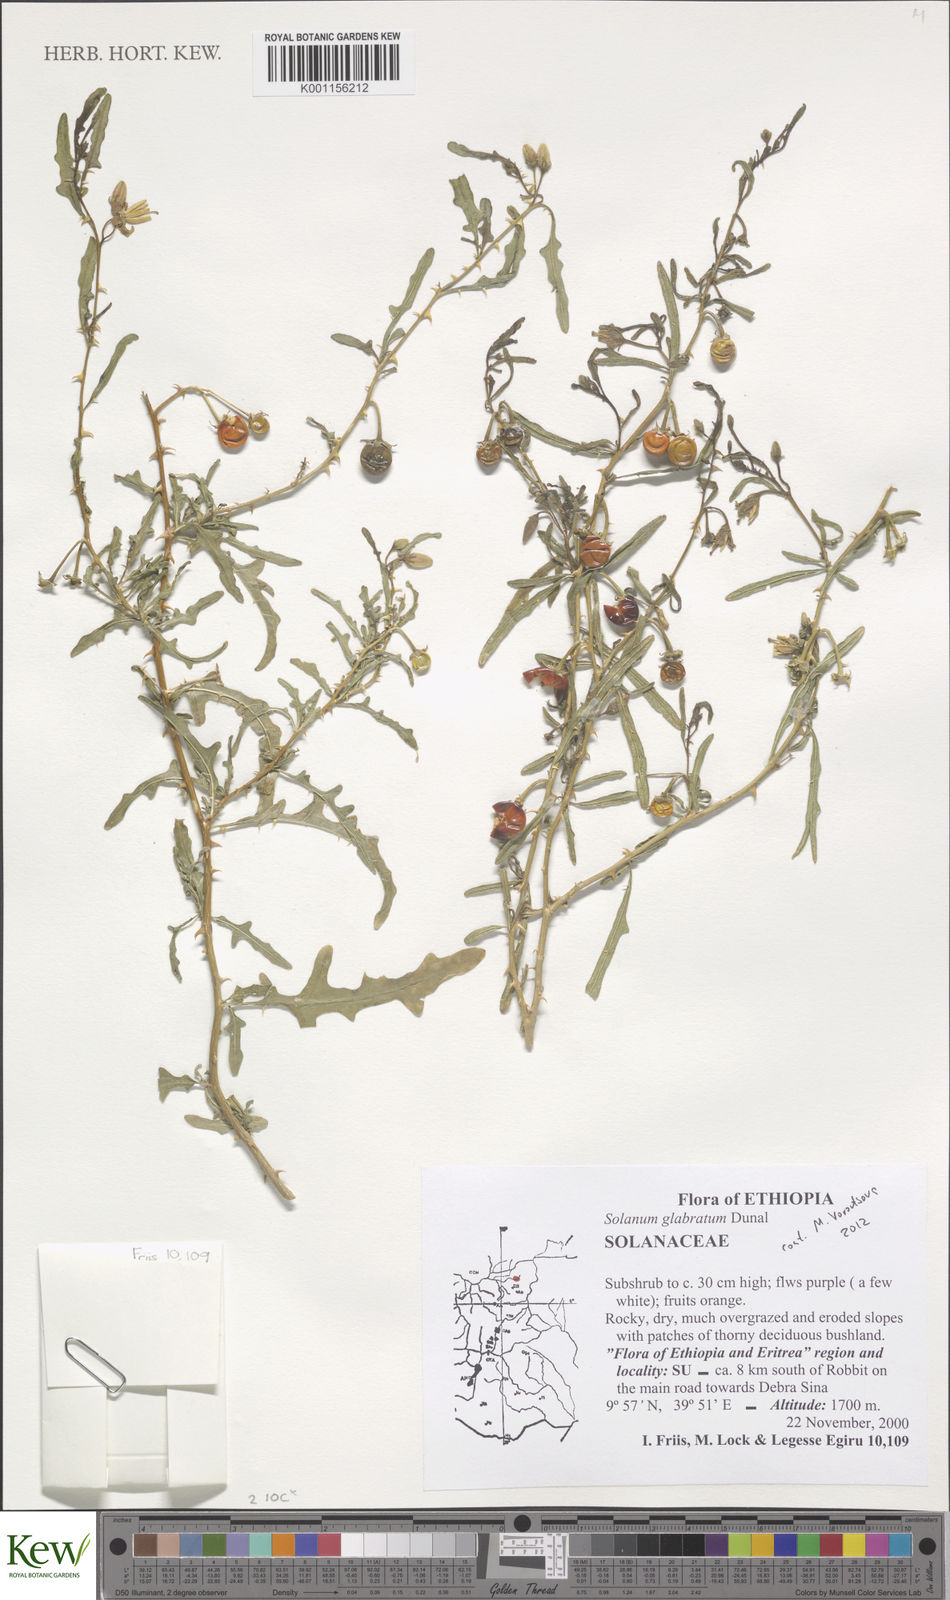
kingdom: Plantae
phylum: Tracheophyta
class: Magnoliopsida
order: Solanales
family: Solanaceae
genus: Solanum
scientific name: Solanum glabratum
